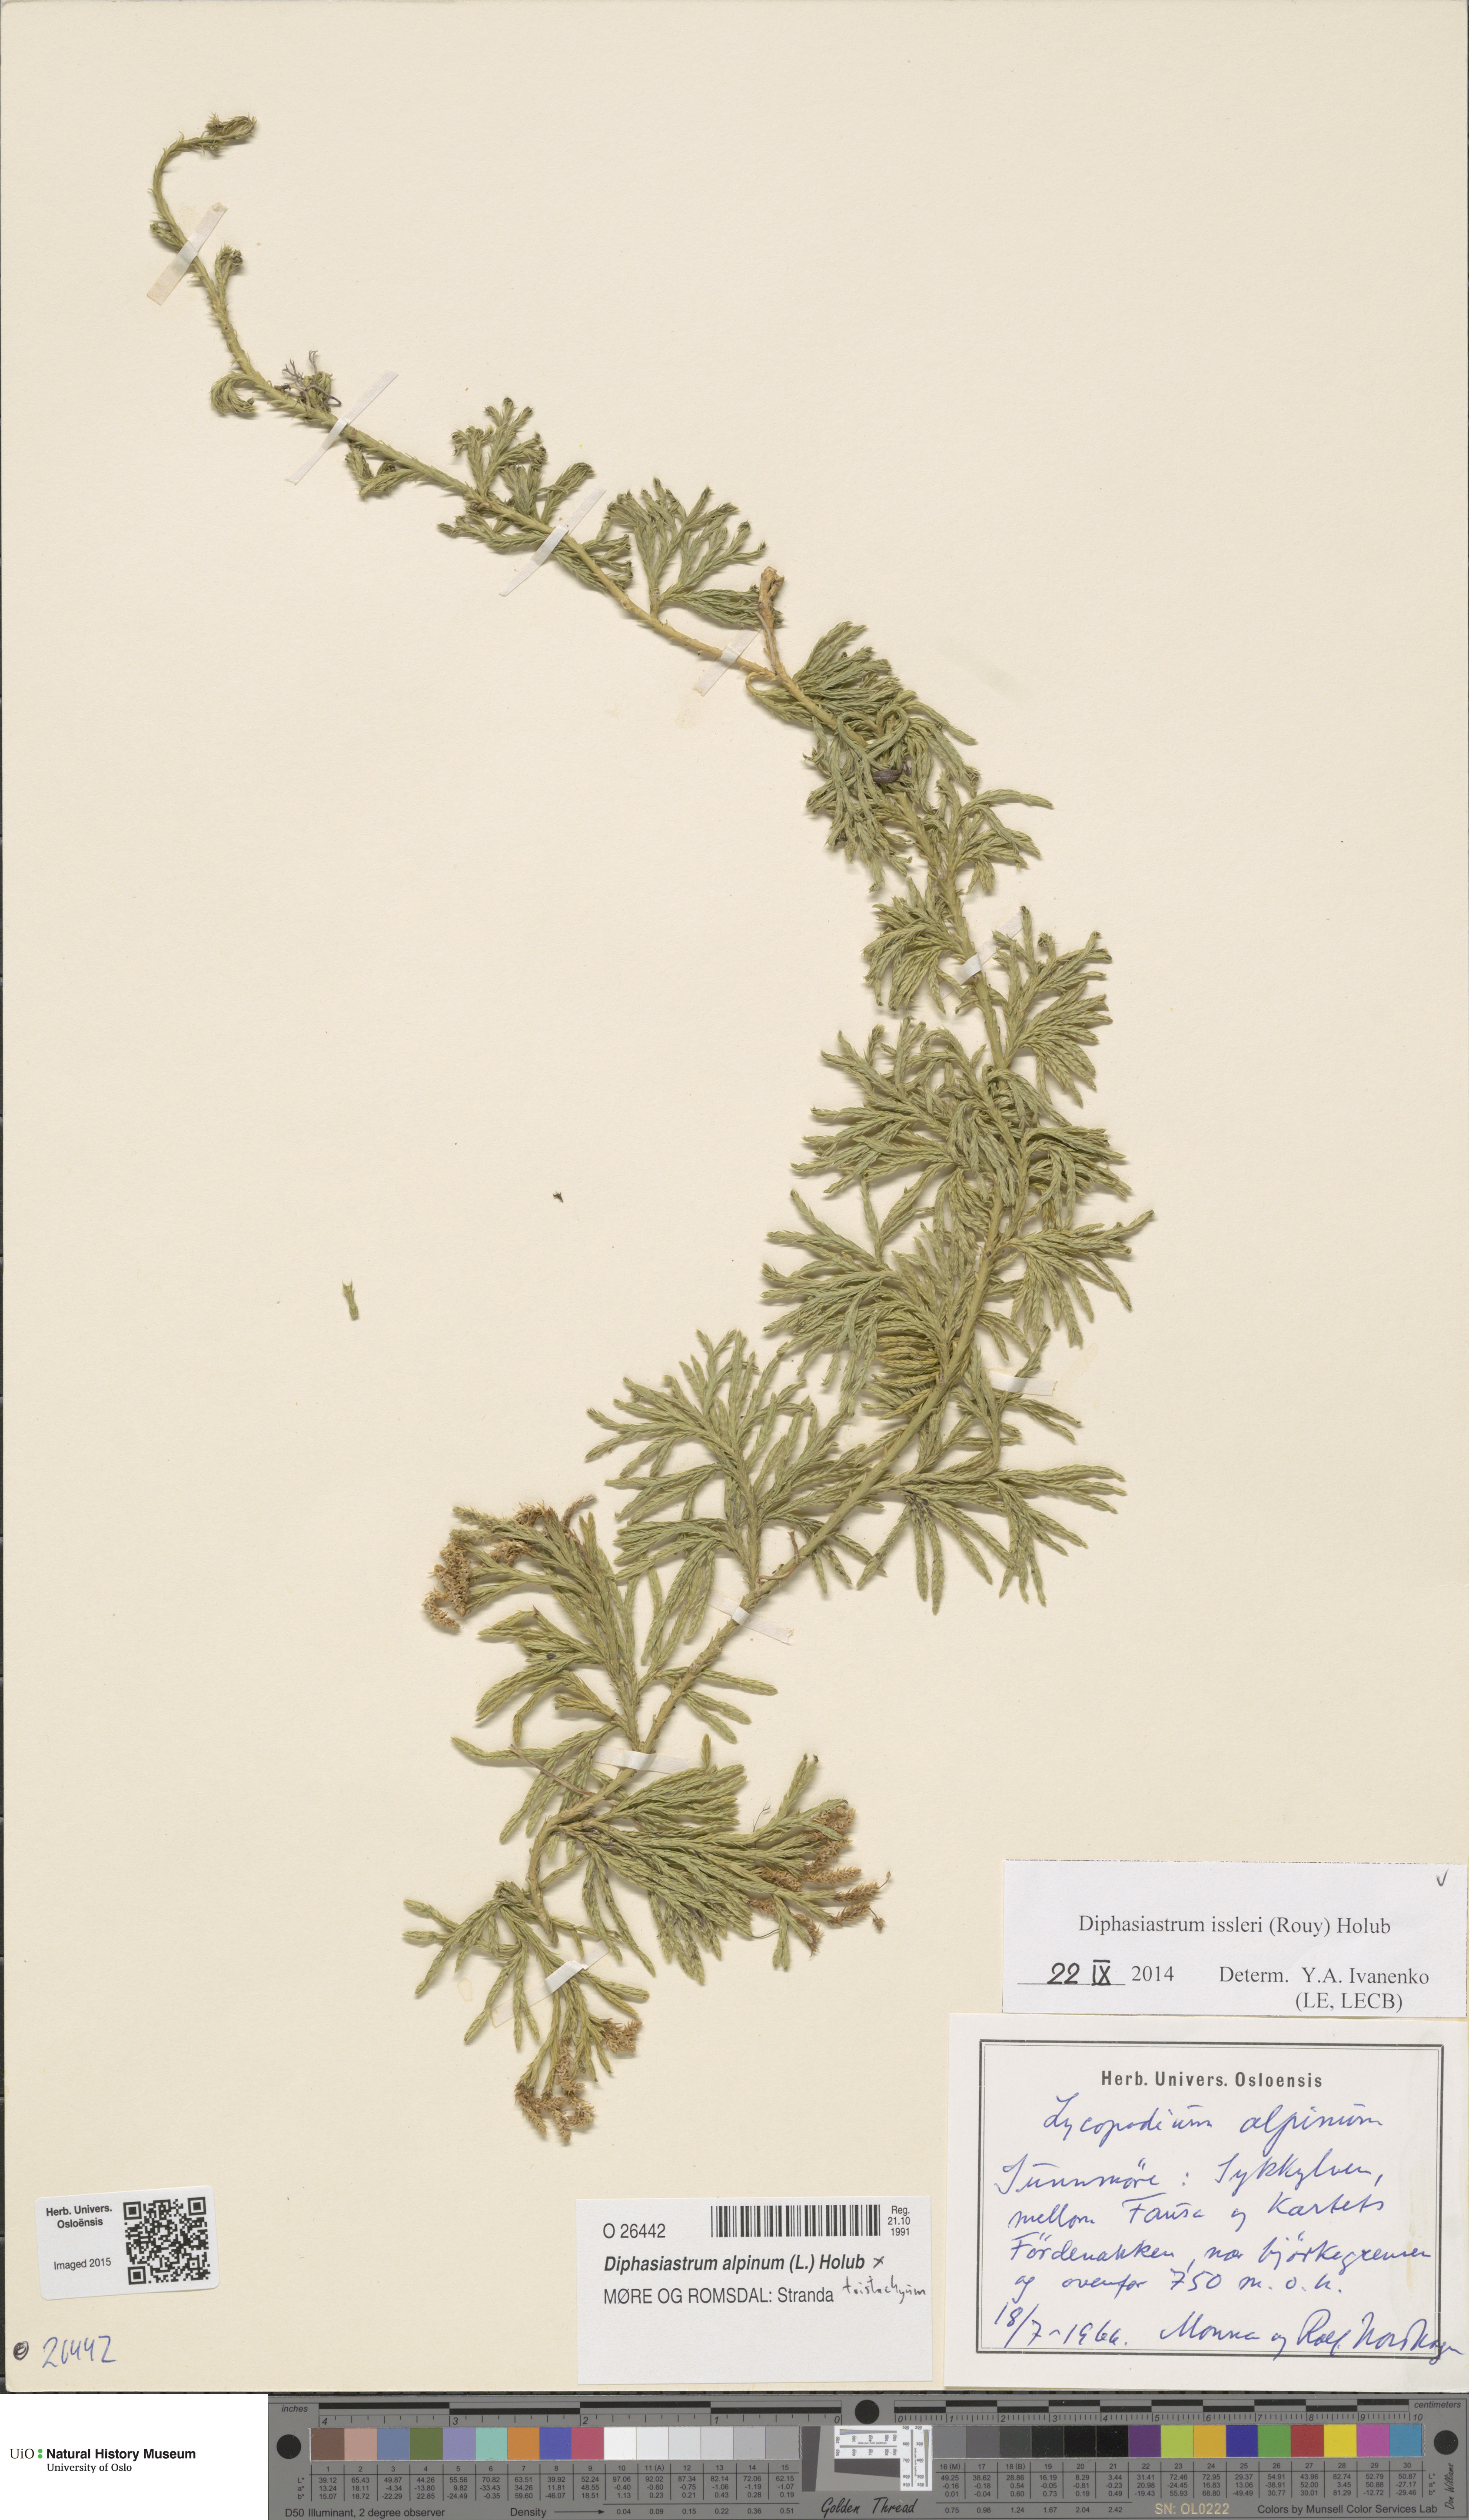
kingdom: Plantae
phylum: Tracheophyta
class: Lycopodiopsida
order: Lycopodiales
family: Lycopodiaceae
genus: Diphasiastrum
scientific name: Diphasiastrum issleri
